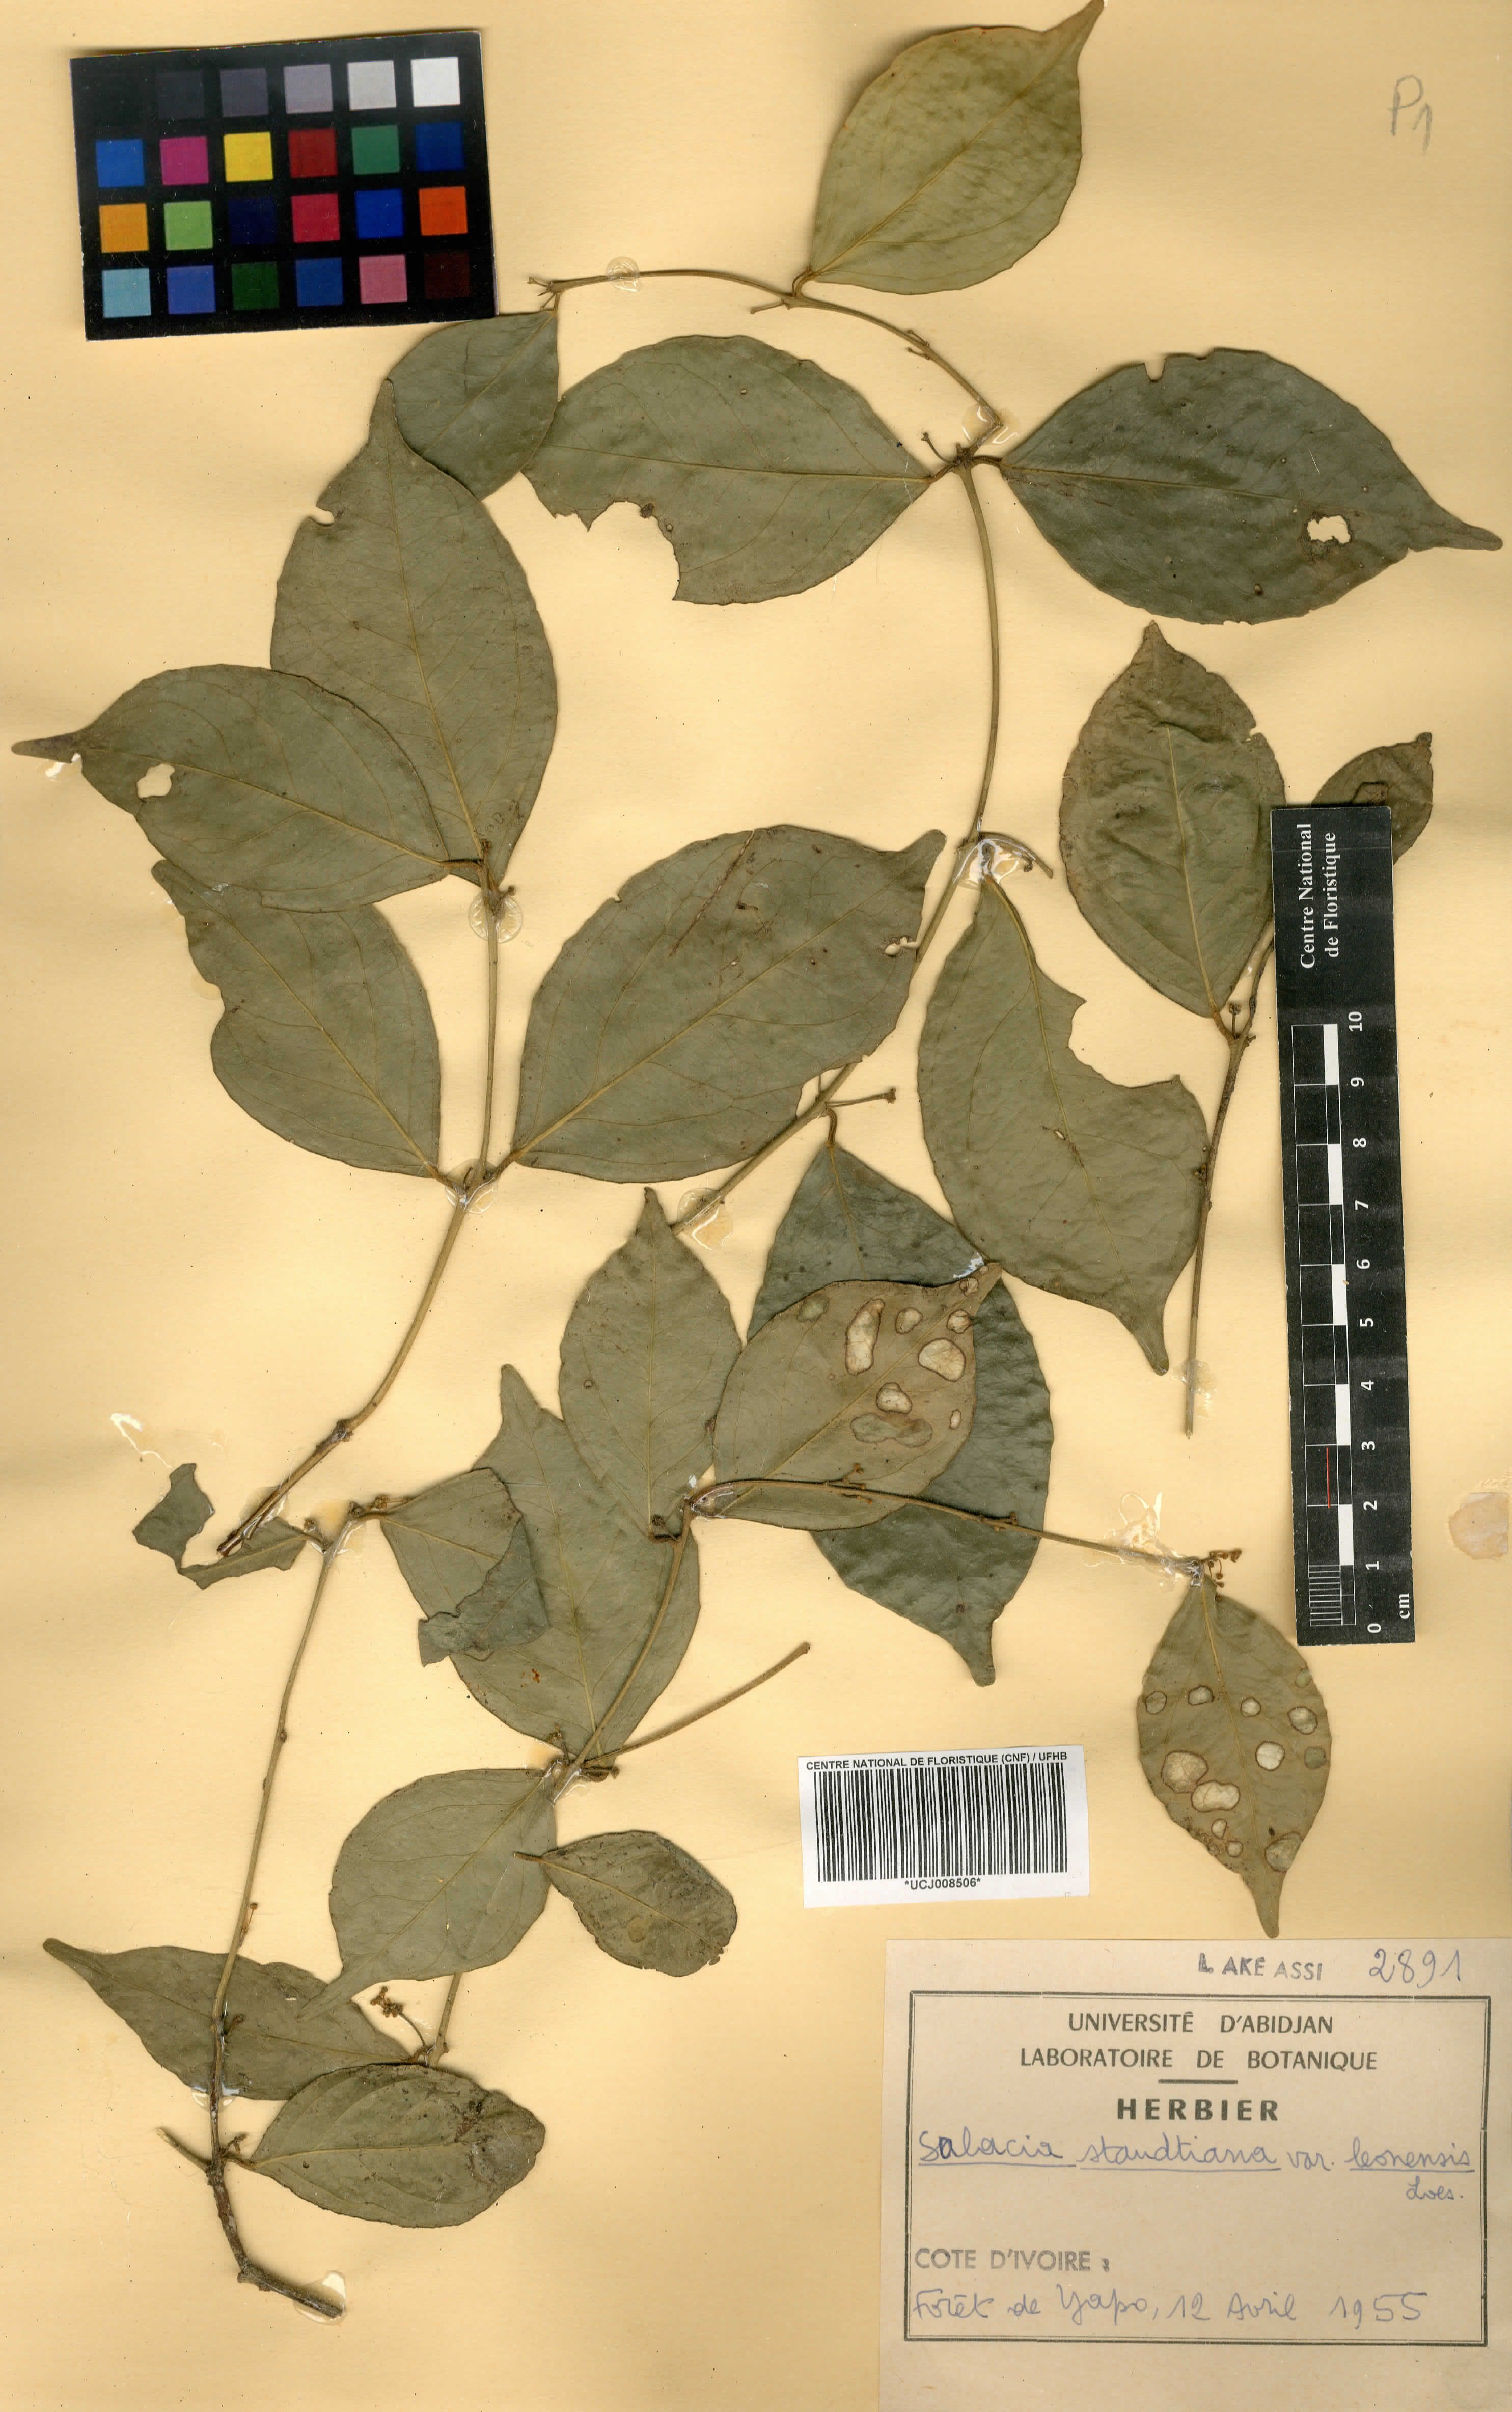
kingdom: Plantae
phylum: Tracheophyta
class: Magnoliopsida
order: Celastrales
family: Celastraceae
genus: Salacia
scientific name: Salacia caillei
